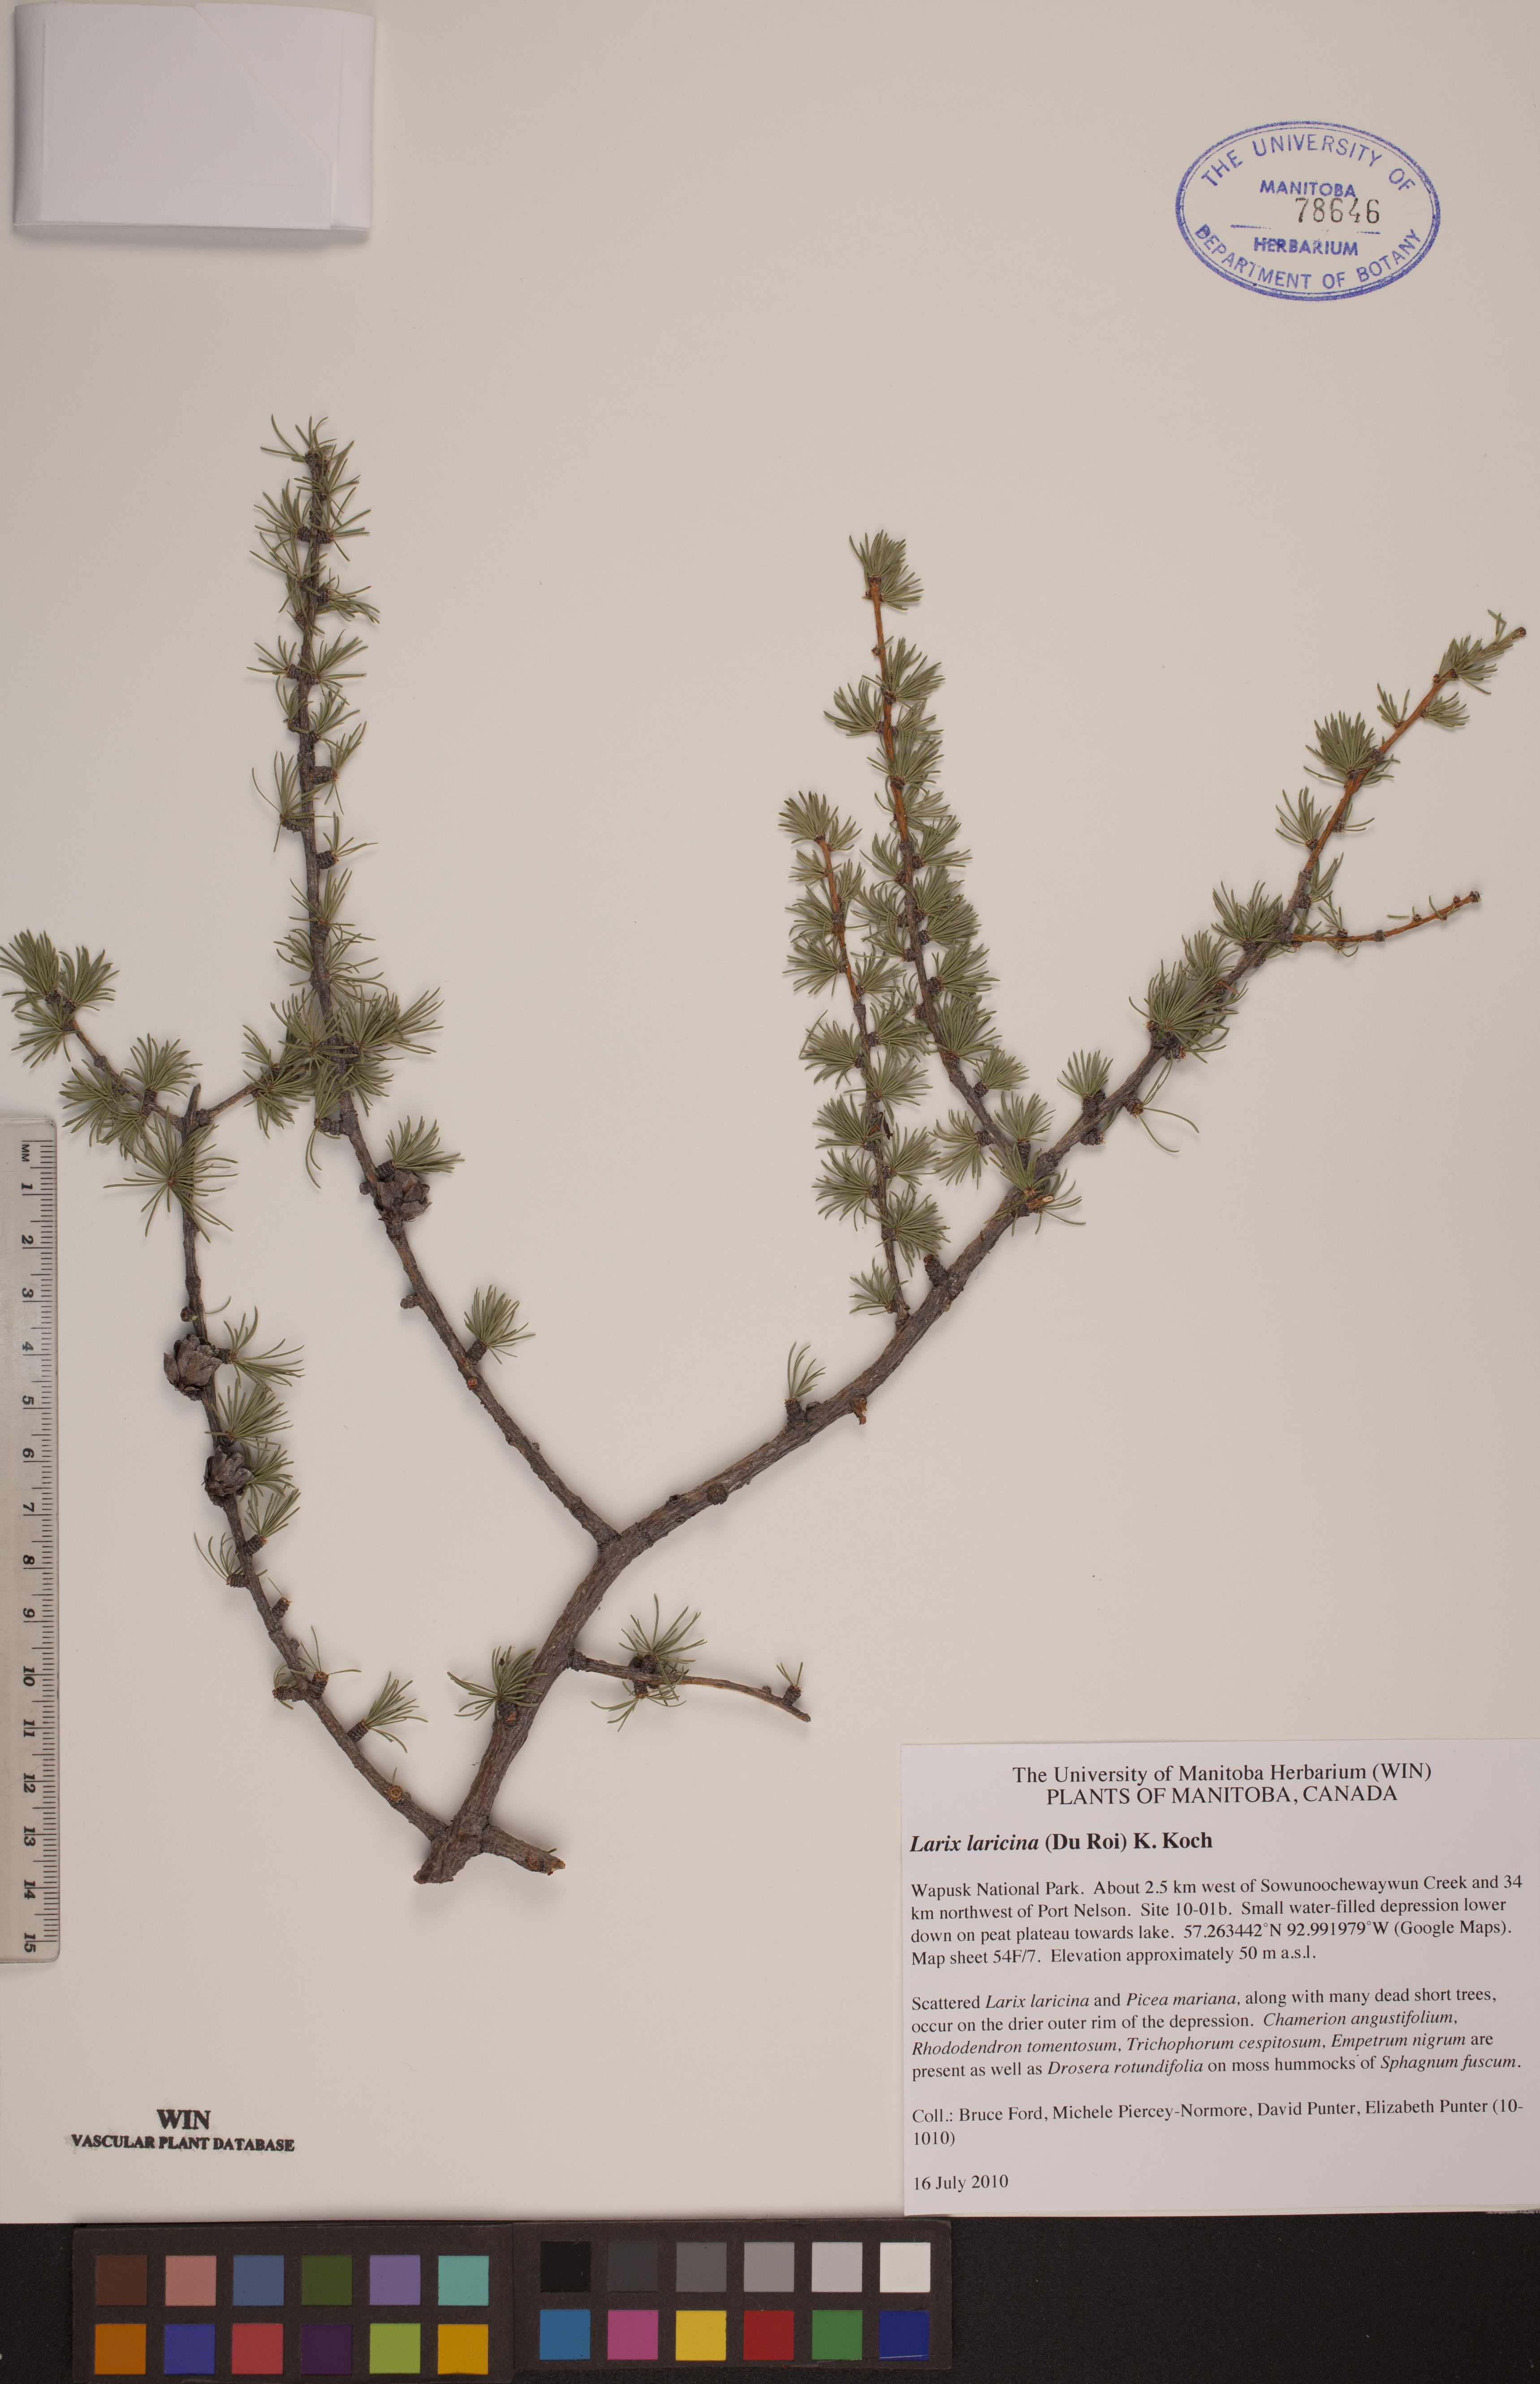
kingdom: Plantae
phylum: Tracheophyta
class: Pinopsida
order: Pinales
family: Pinaceae
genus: Larix
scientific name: Larix laricina
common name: American larch
